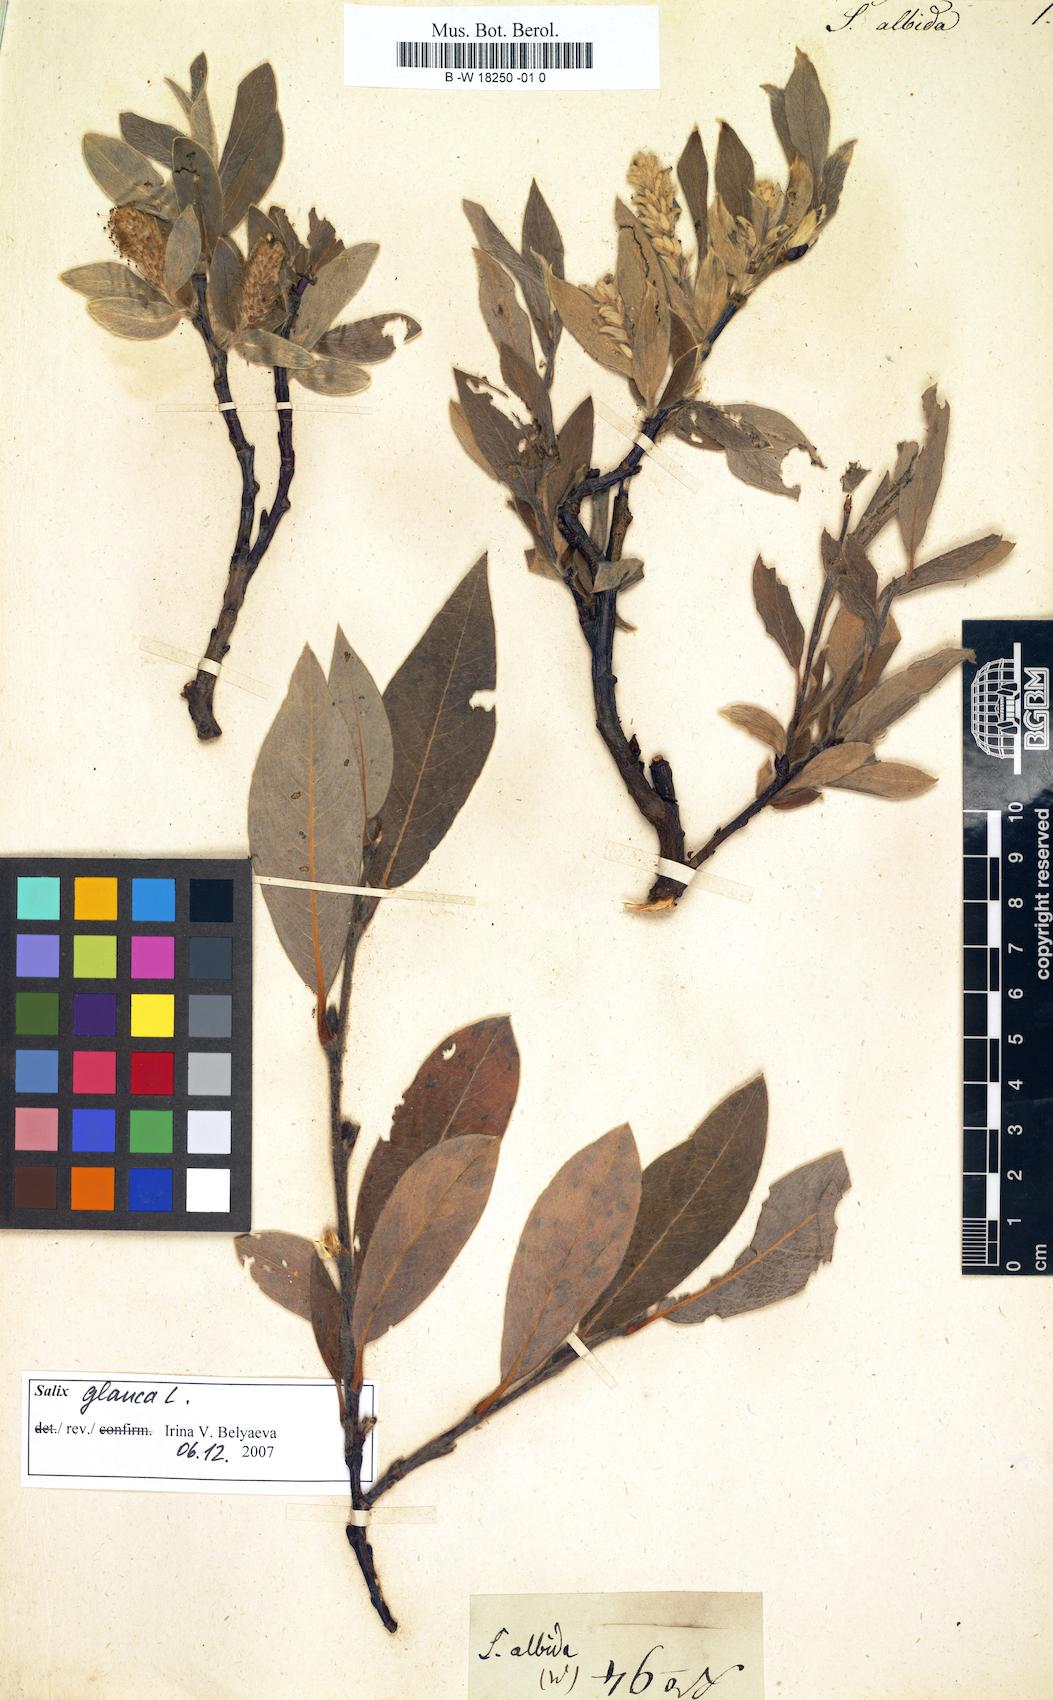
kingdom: Plantae
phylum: Tracheophyta
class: Magnoliopsida
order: Malpighiales
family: Salicaceae
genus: Salix
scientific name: Salix glauca
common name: Glaucous willow
